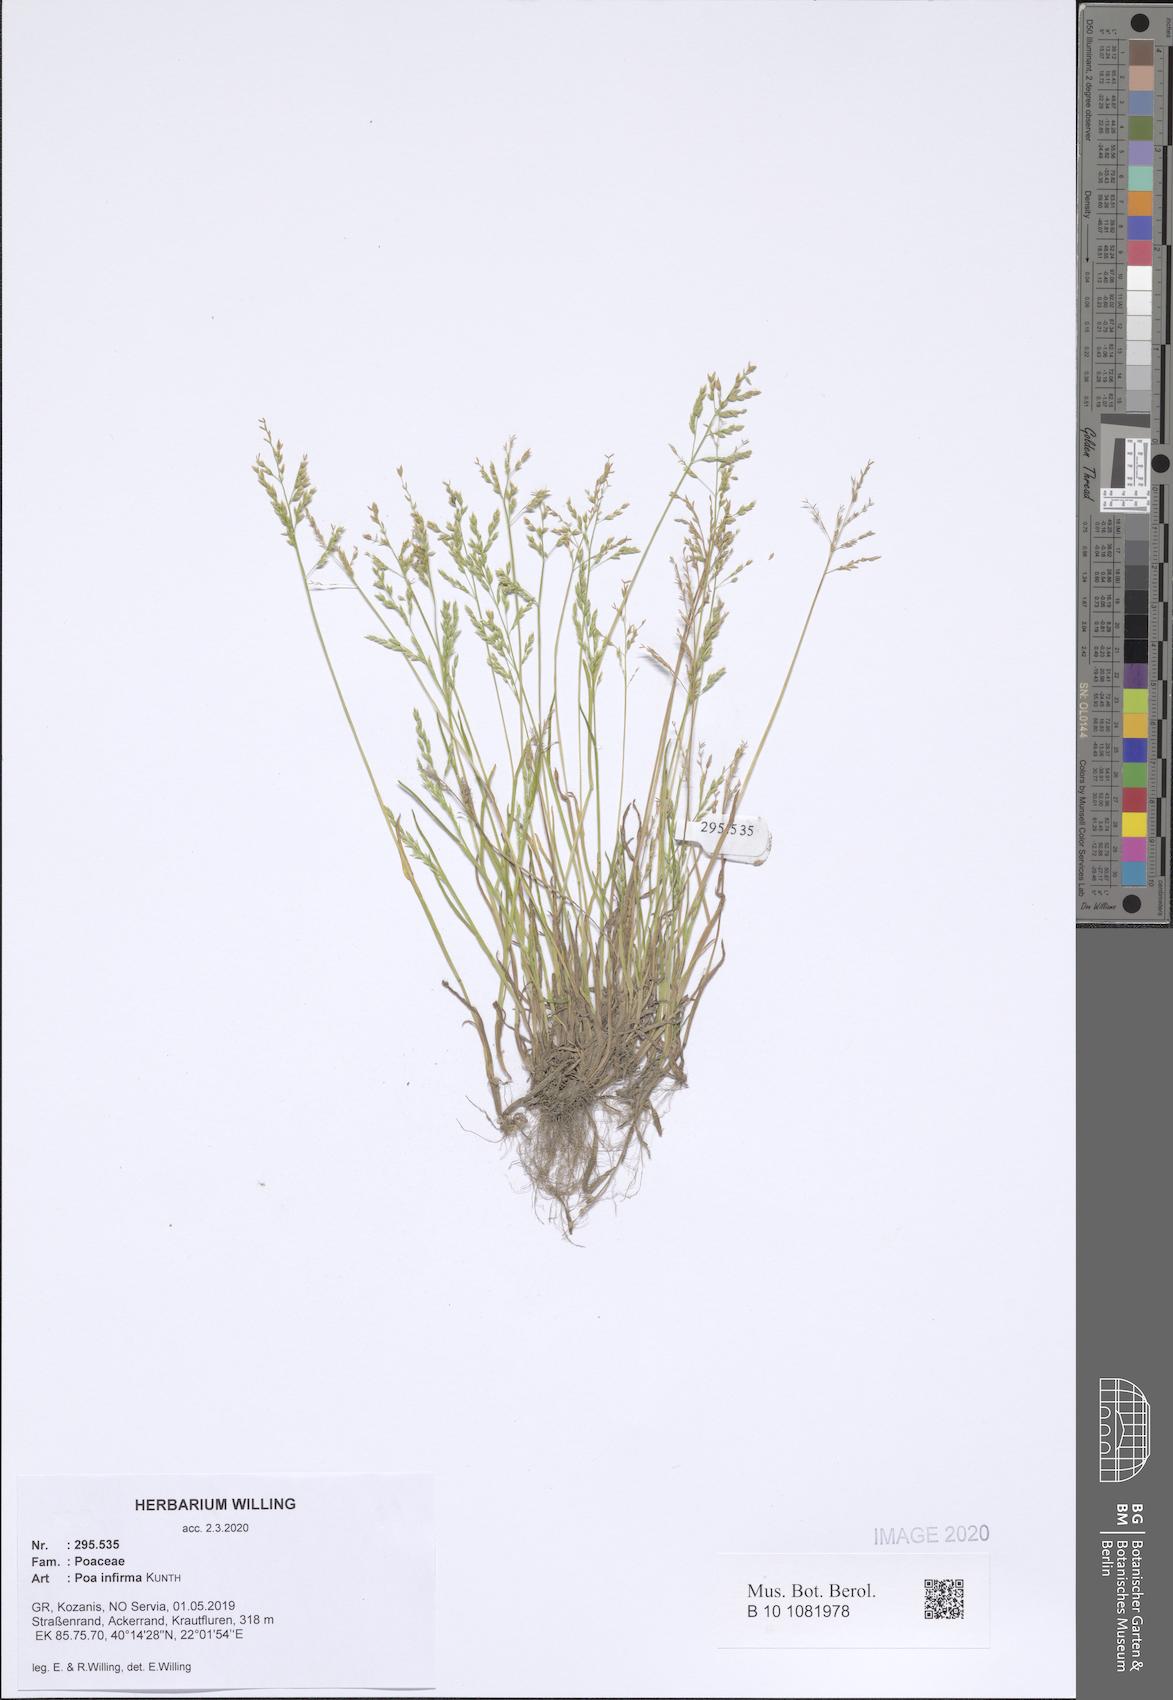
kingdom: Plantae
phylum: Tracheophyta
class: Liliopsida
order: Poales
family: Poaceae
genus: Poa
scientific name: Poa infirma
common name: Weak bluegrass
